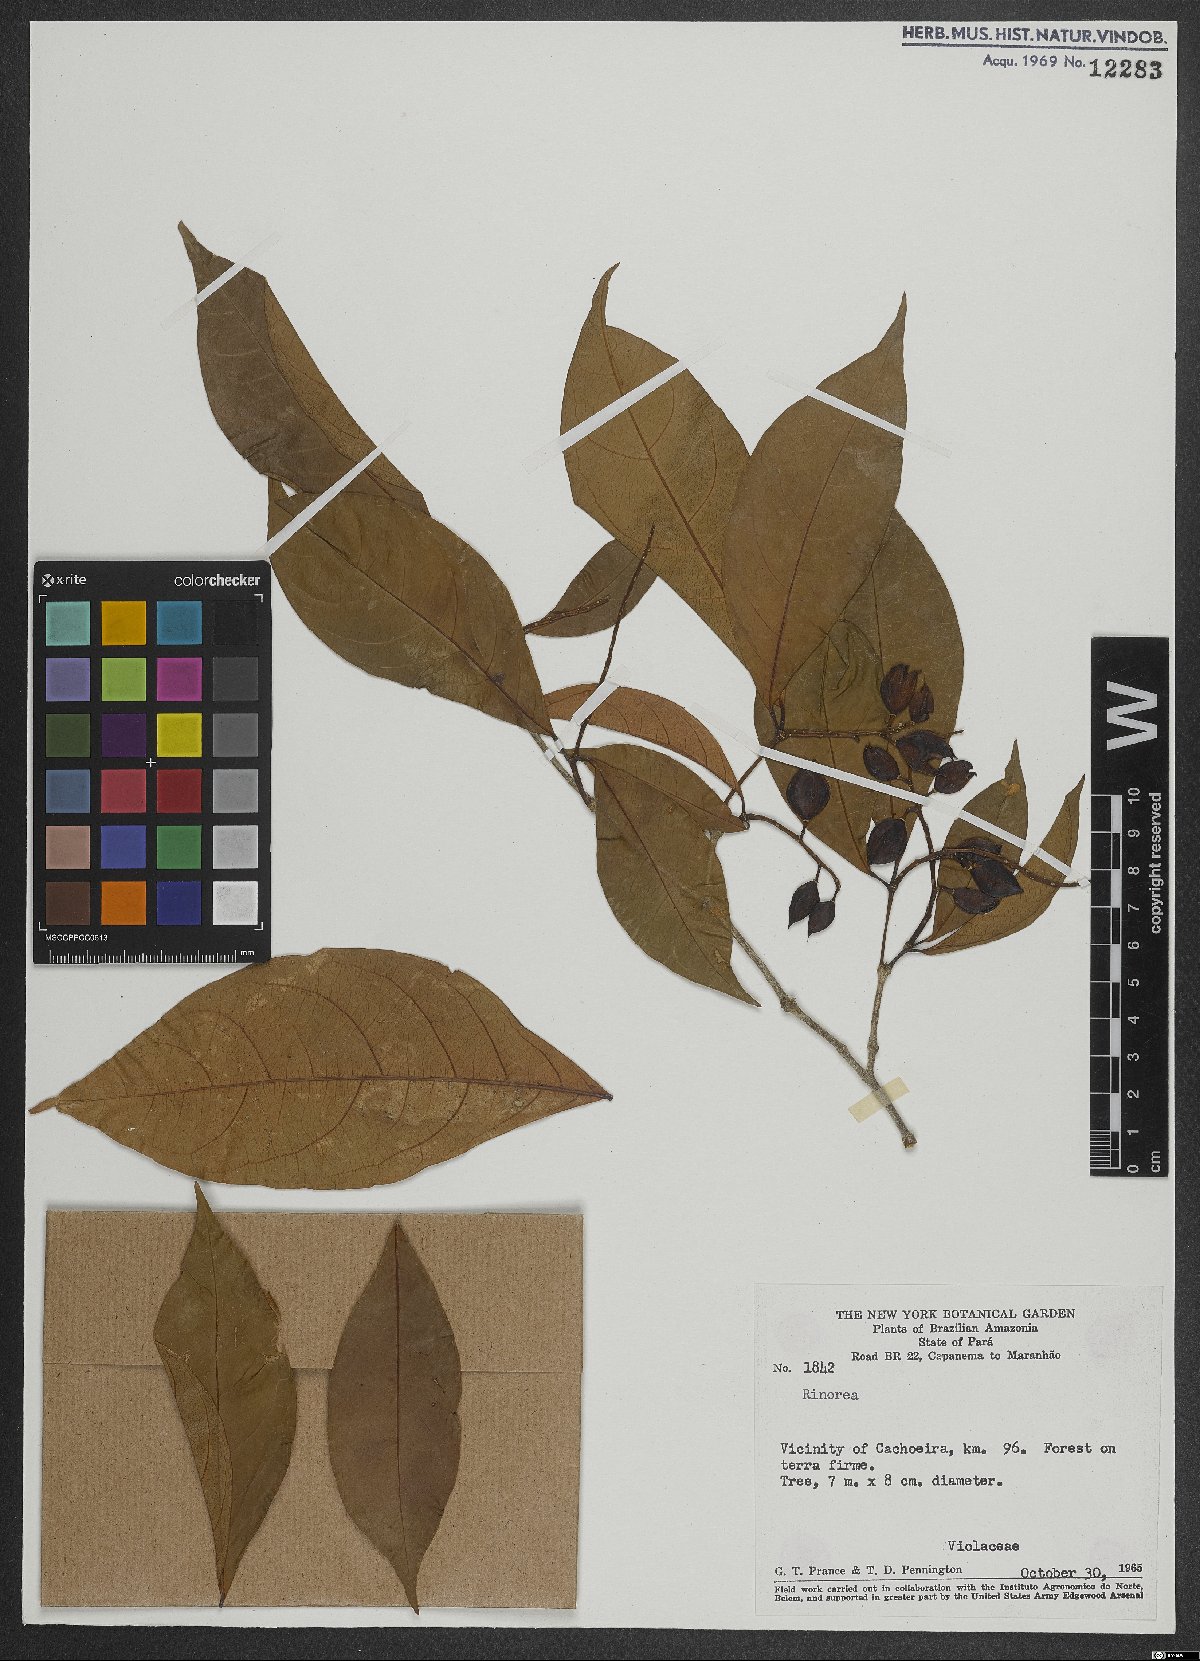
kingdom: Plantae
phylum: Tracheophyta
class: Magnoliopsida
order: Malpighiales
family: Violaceae
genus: Rinorea
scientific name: Rinorea
